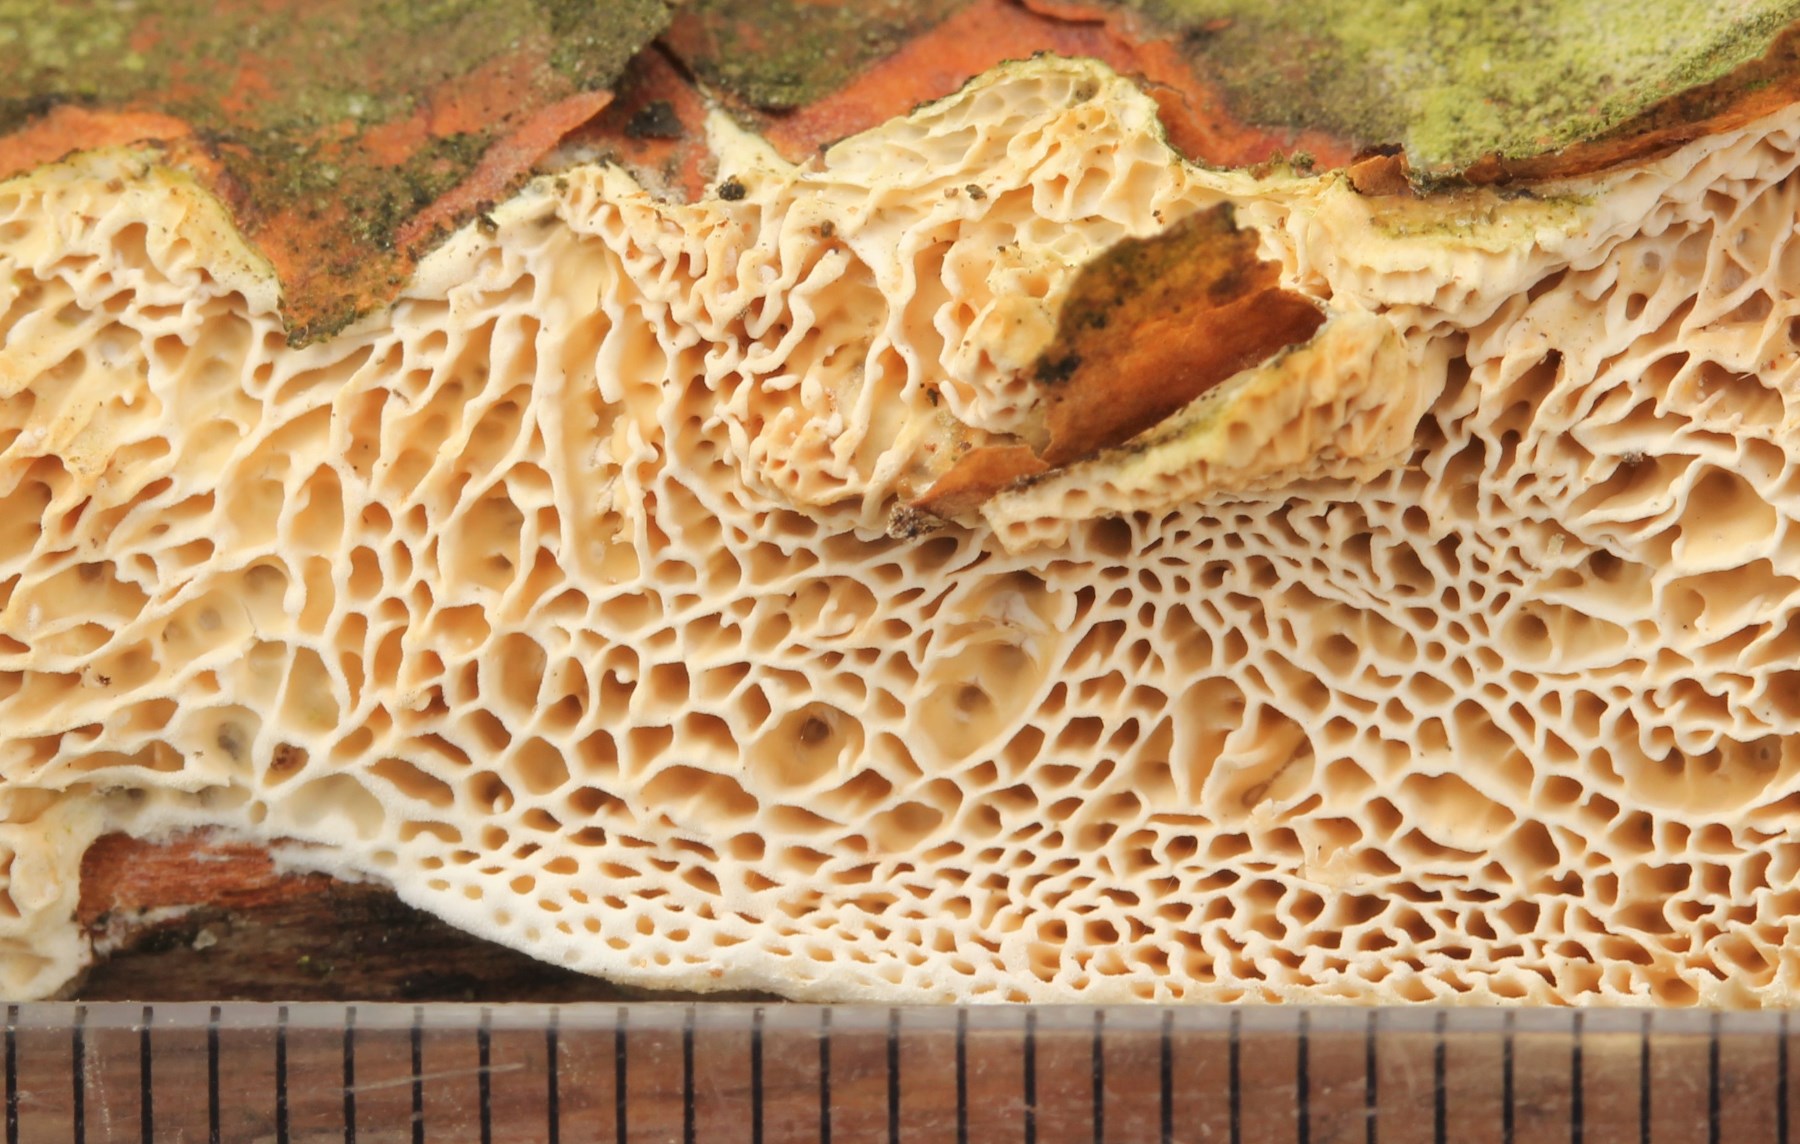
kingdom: Fungi
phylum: Basidiomycota
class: Agaricomycetes
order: Polyporales
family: Fomitopsidaceae
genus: Fomitopsis
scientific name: Fomitopsis
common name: fyrre-skiveporesvamp
